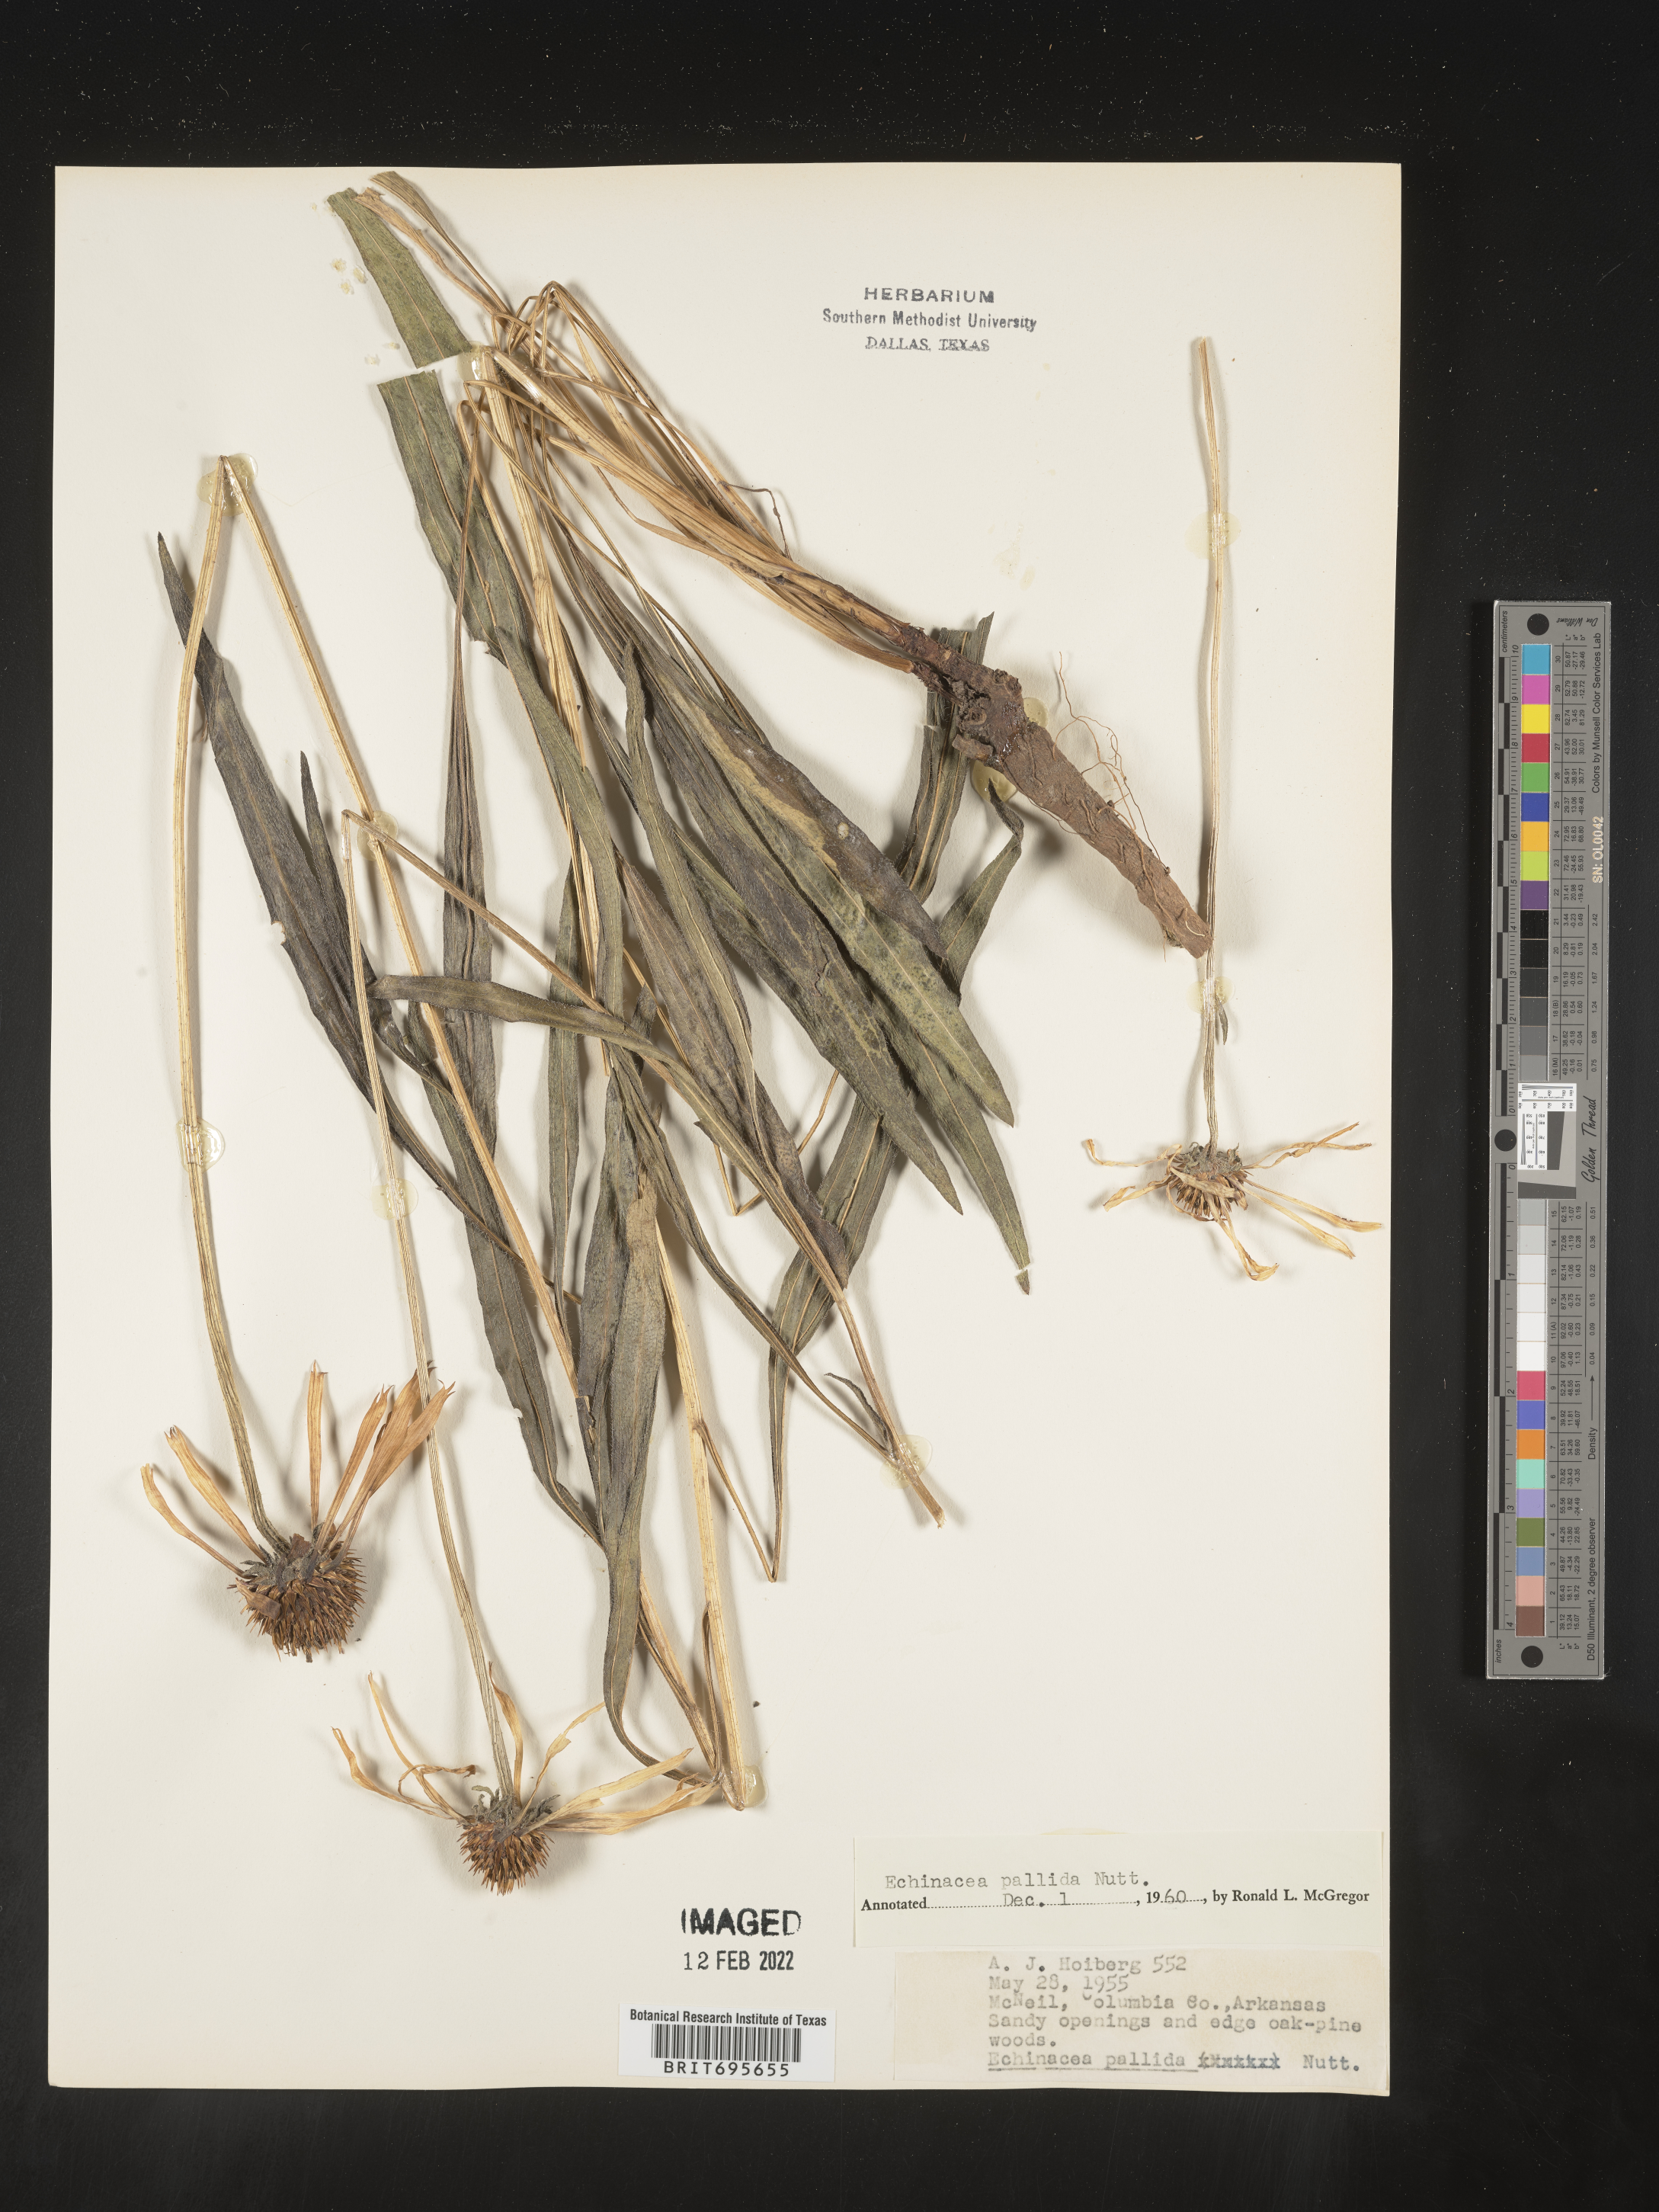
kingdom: Plantae
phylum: Tracheophyta
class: Magnoliopsida
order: Asterales
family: Asteraceae
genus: Echinacea
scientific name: Echinacea pallida
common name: Pale echinacea
